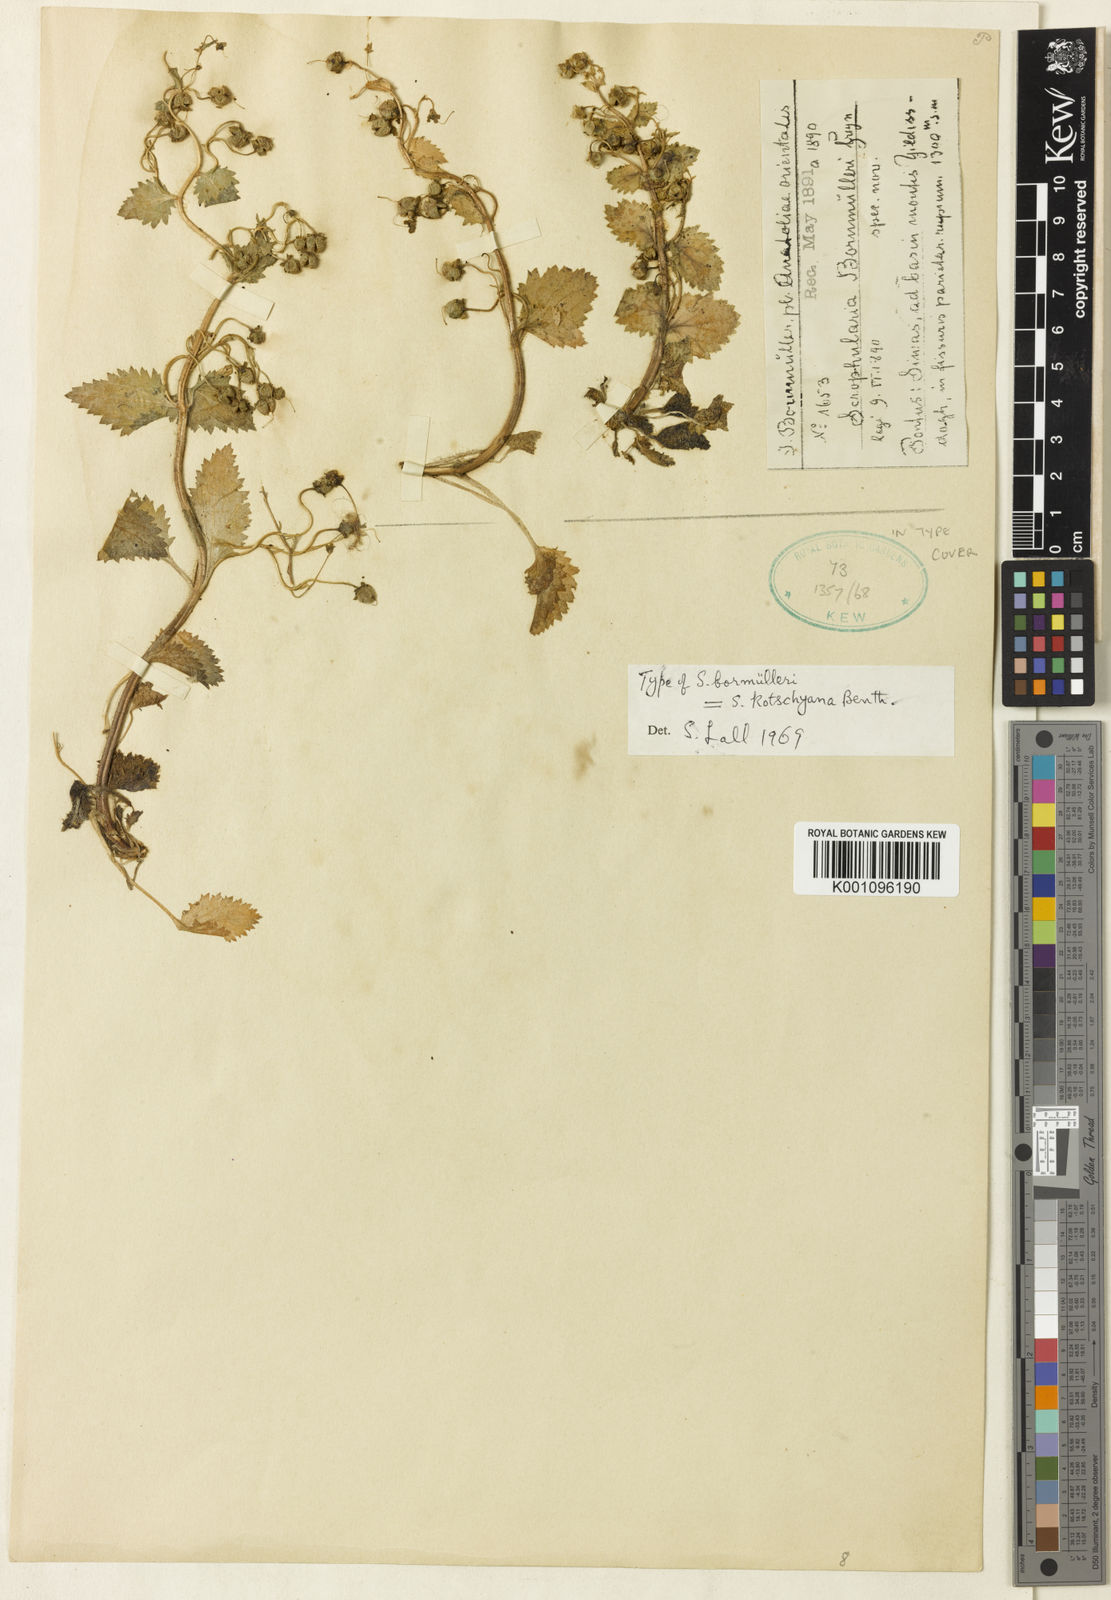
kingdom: Plantae
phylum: Tracheophyta
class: Magnoliopsida
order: Lamiales
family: Scrophulariaceae
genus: Scrophularia
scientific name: Scrophularia kotschyana
